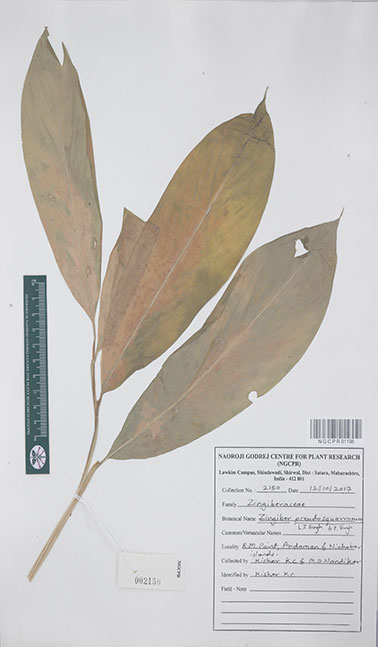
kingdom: Plantae
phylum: Tracheophyta
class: Liliopsida
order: Zingiberales
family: Zingiberaceae
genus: Zingiber
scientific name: Zingiber pseudosquarrosum
